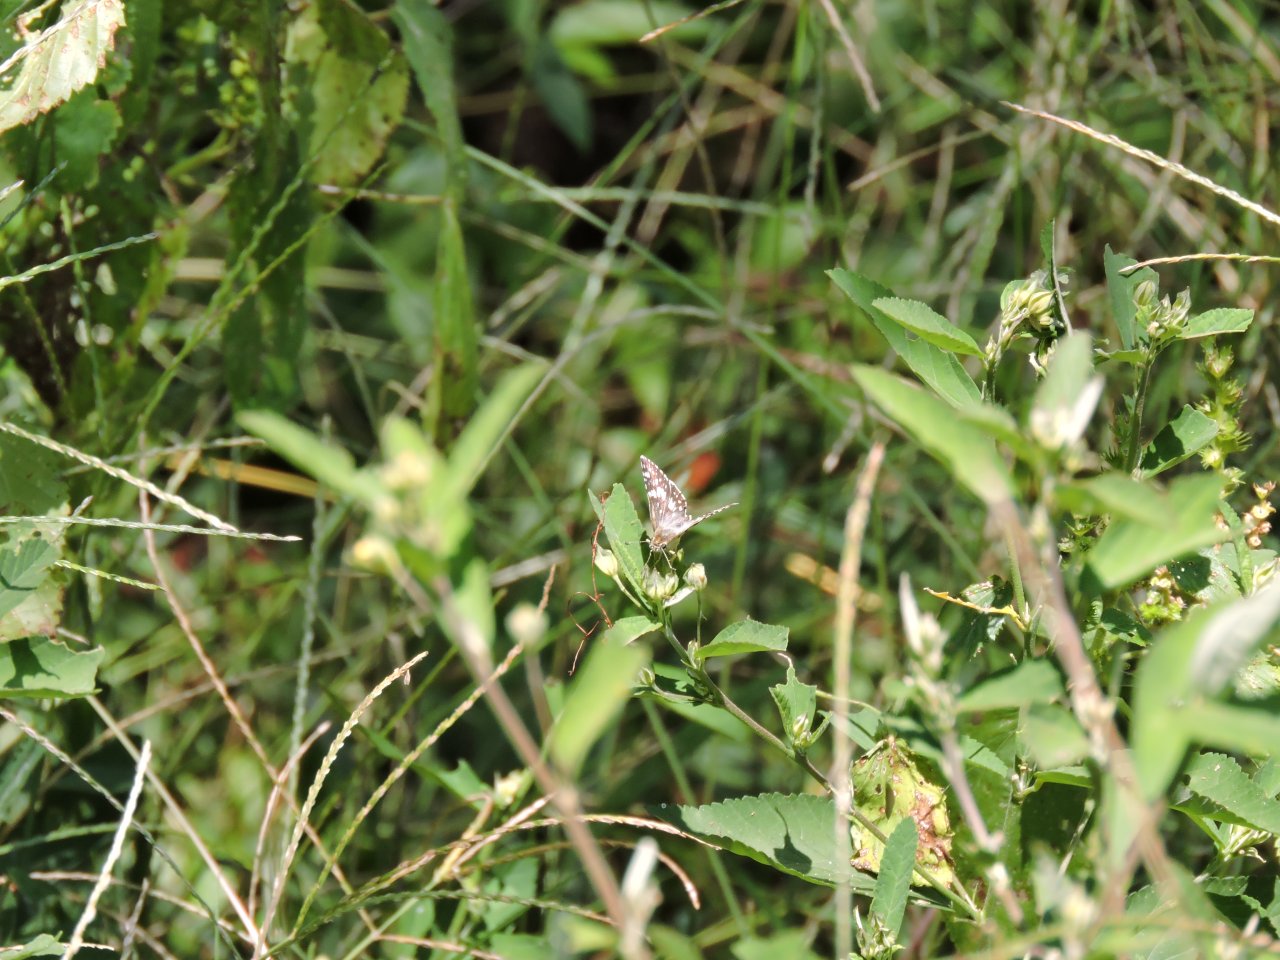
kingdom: Animalia
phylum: Arthropoda
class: Insecta
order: Lepidoptera
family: Hesperiidae
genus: Pyrgus
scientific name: Pyrgus
